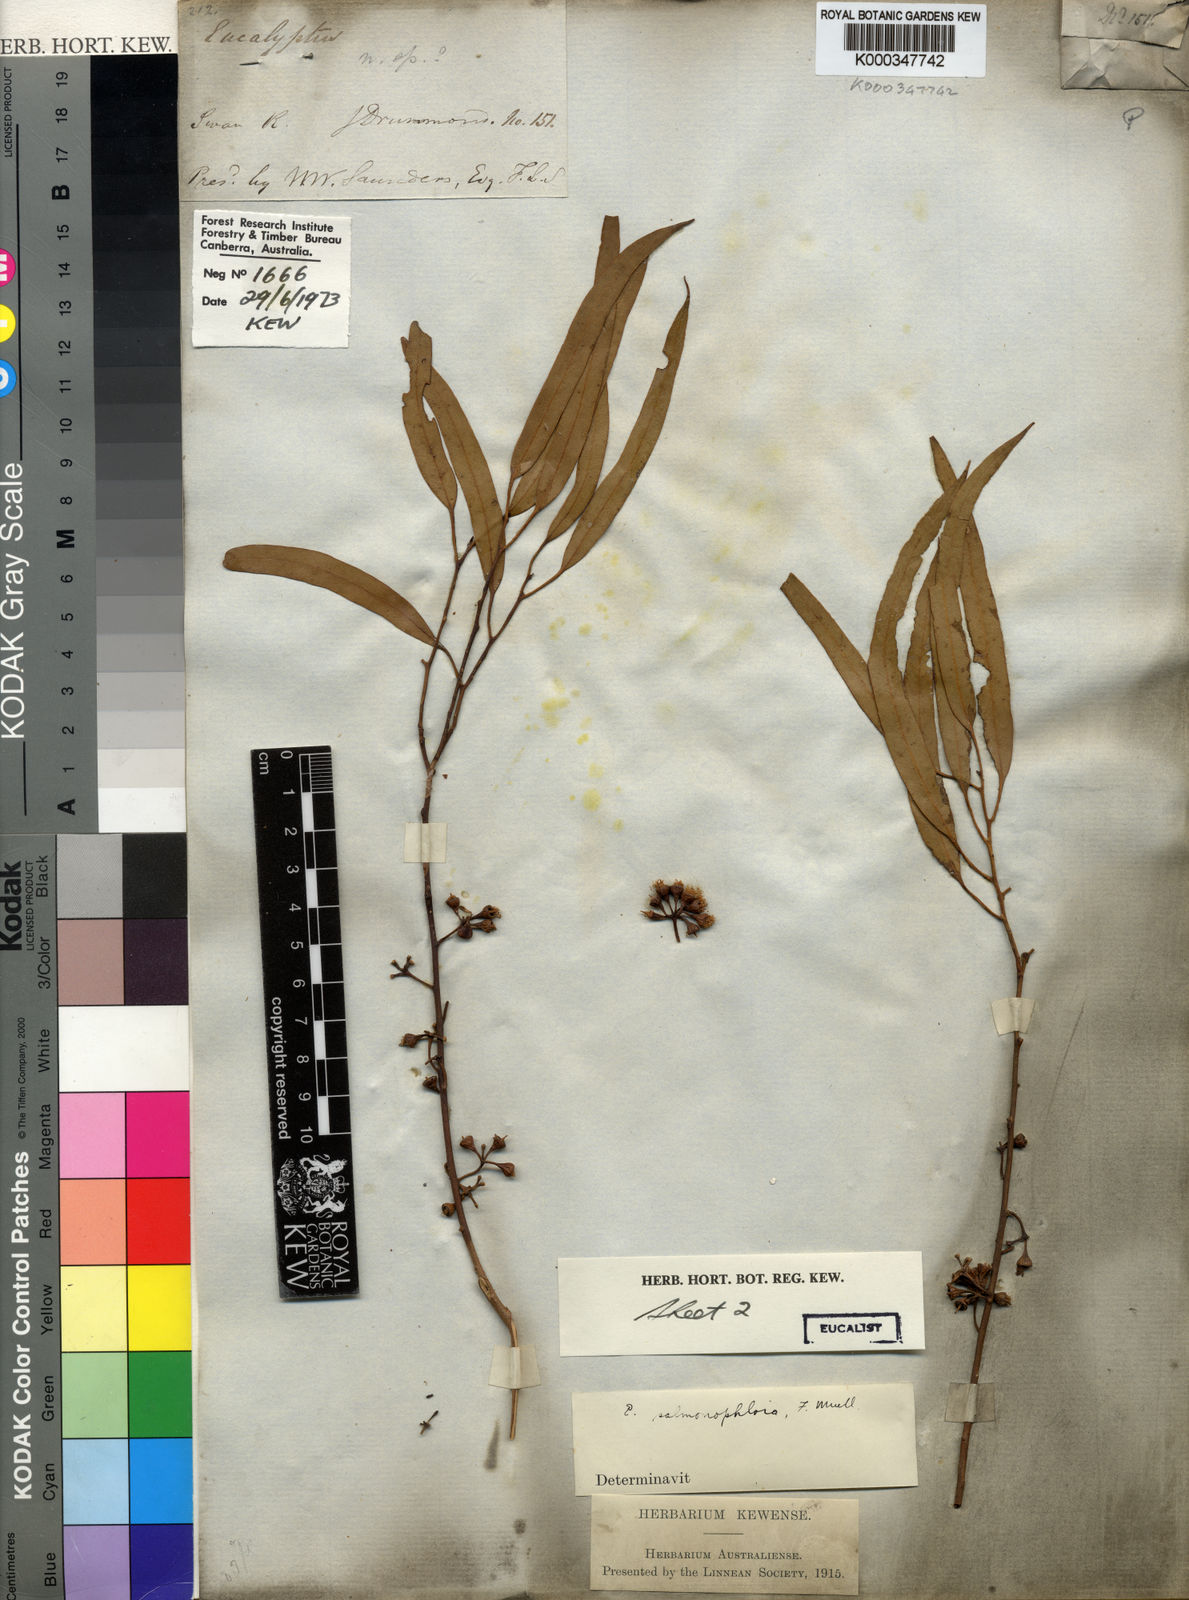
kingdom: Plantae
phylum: Tracheophyta
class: Magnoliopsida
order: Myrtales
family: Myrtaceae
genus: Eucalyptus
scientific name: Eucalyptus salmonophloia
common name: Salmon gum
